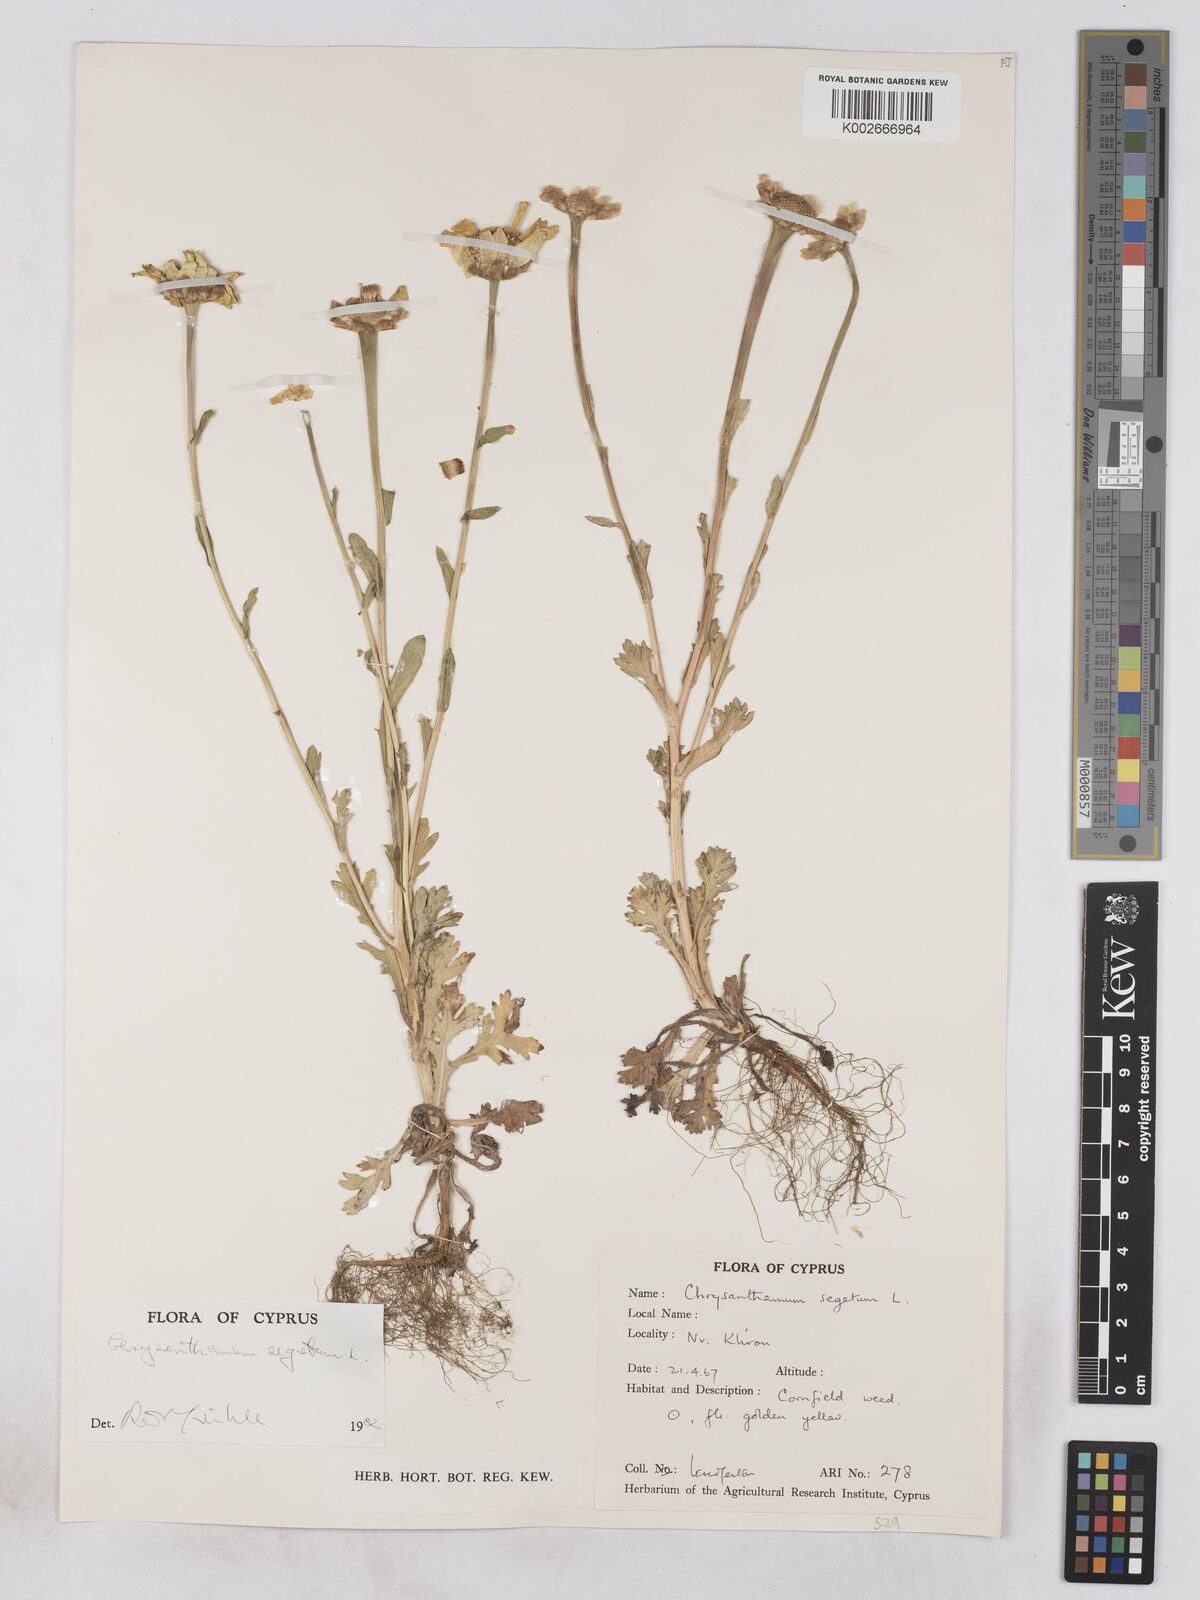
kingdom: Plantae
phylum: Tracheophyta
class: Magnoliopsida
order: Asterales
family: Asteraceae
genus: Glebionis
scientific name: Glebionis segetum
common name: Corndaisy
